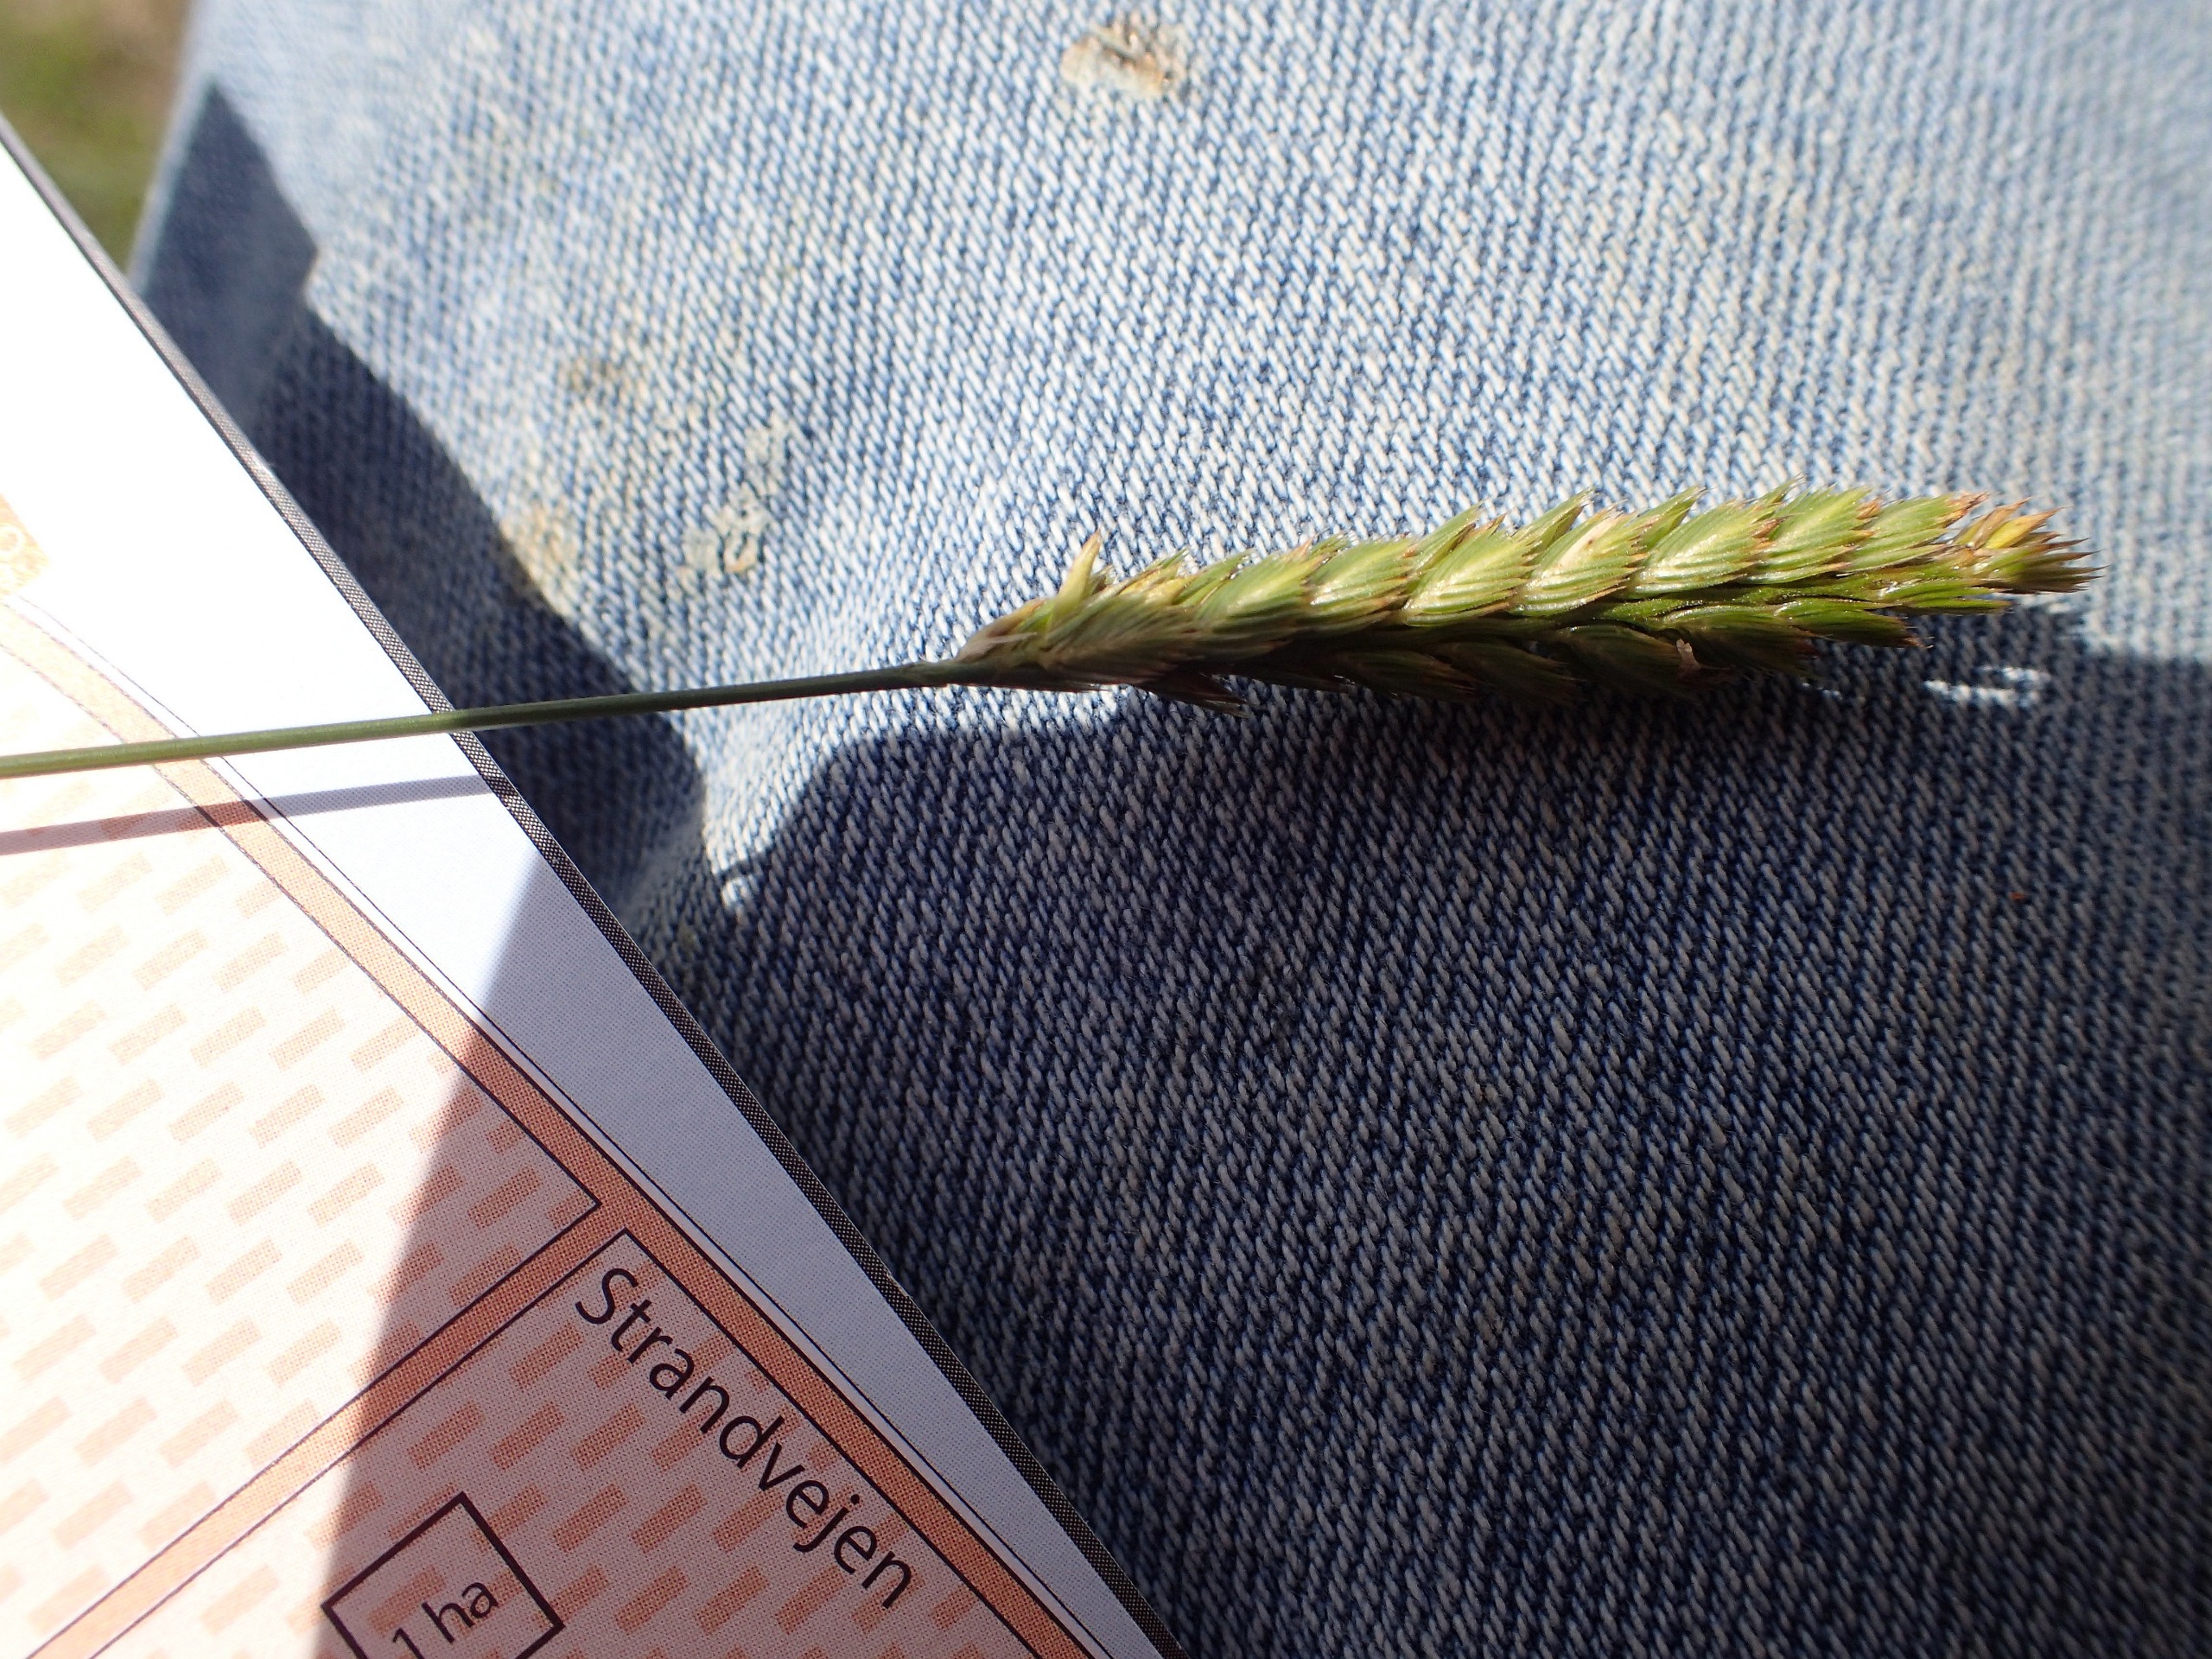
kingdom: Plantae
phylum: Tracheophyta
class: Liliopsida
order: Poales
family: Poaceae
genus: Cynosurus
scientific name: Cynosurus cristatus
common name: Kamgræs
